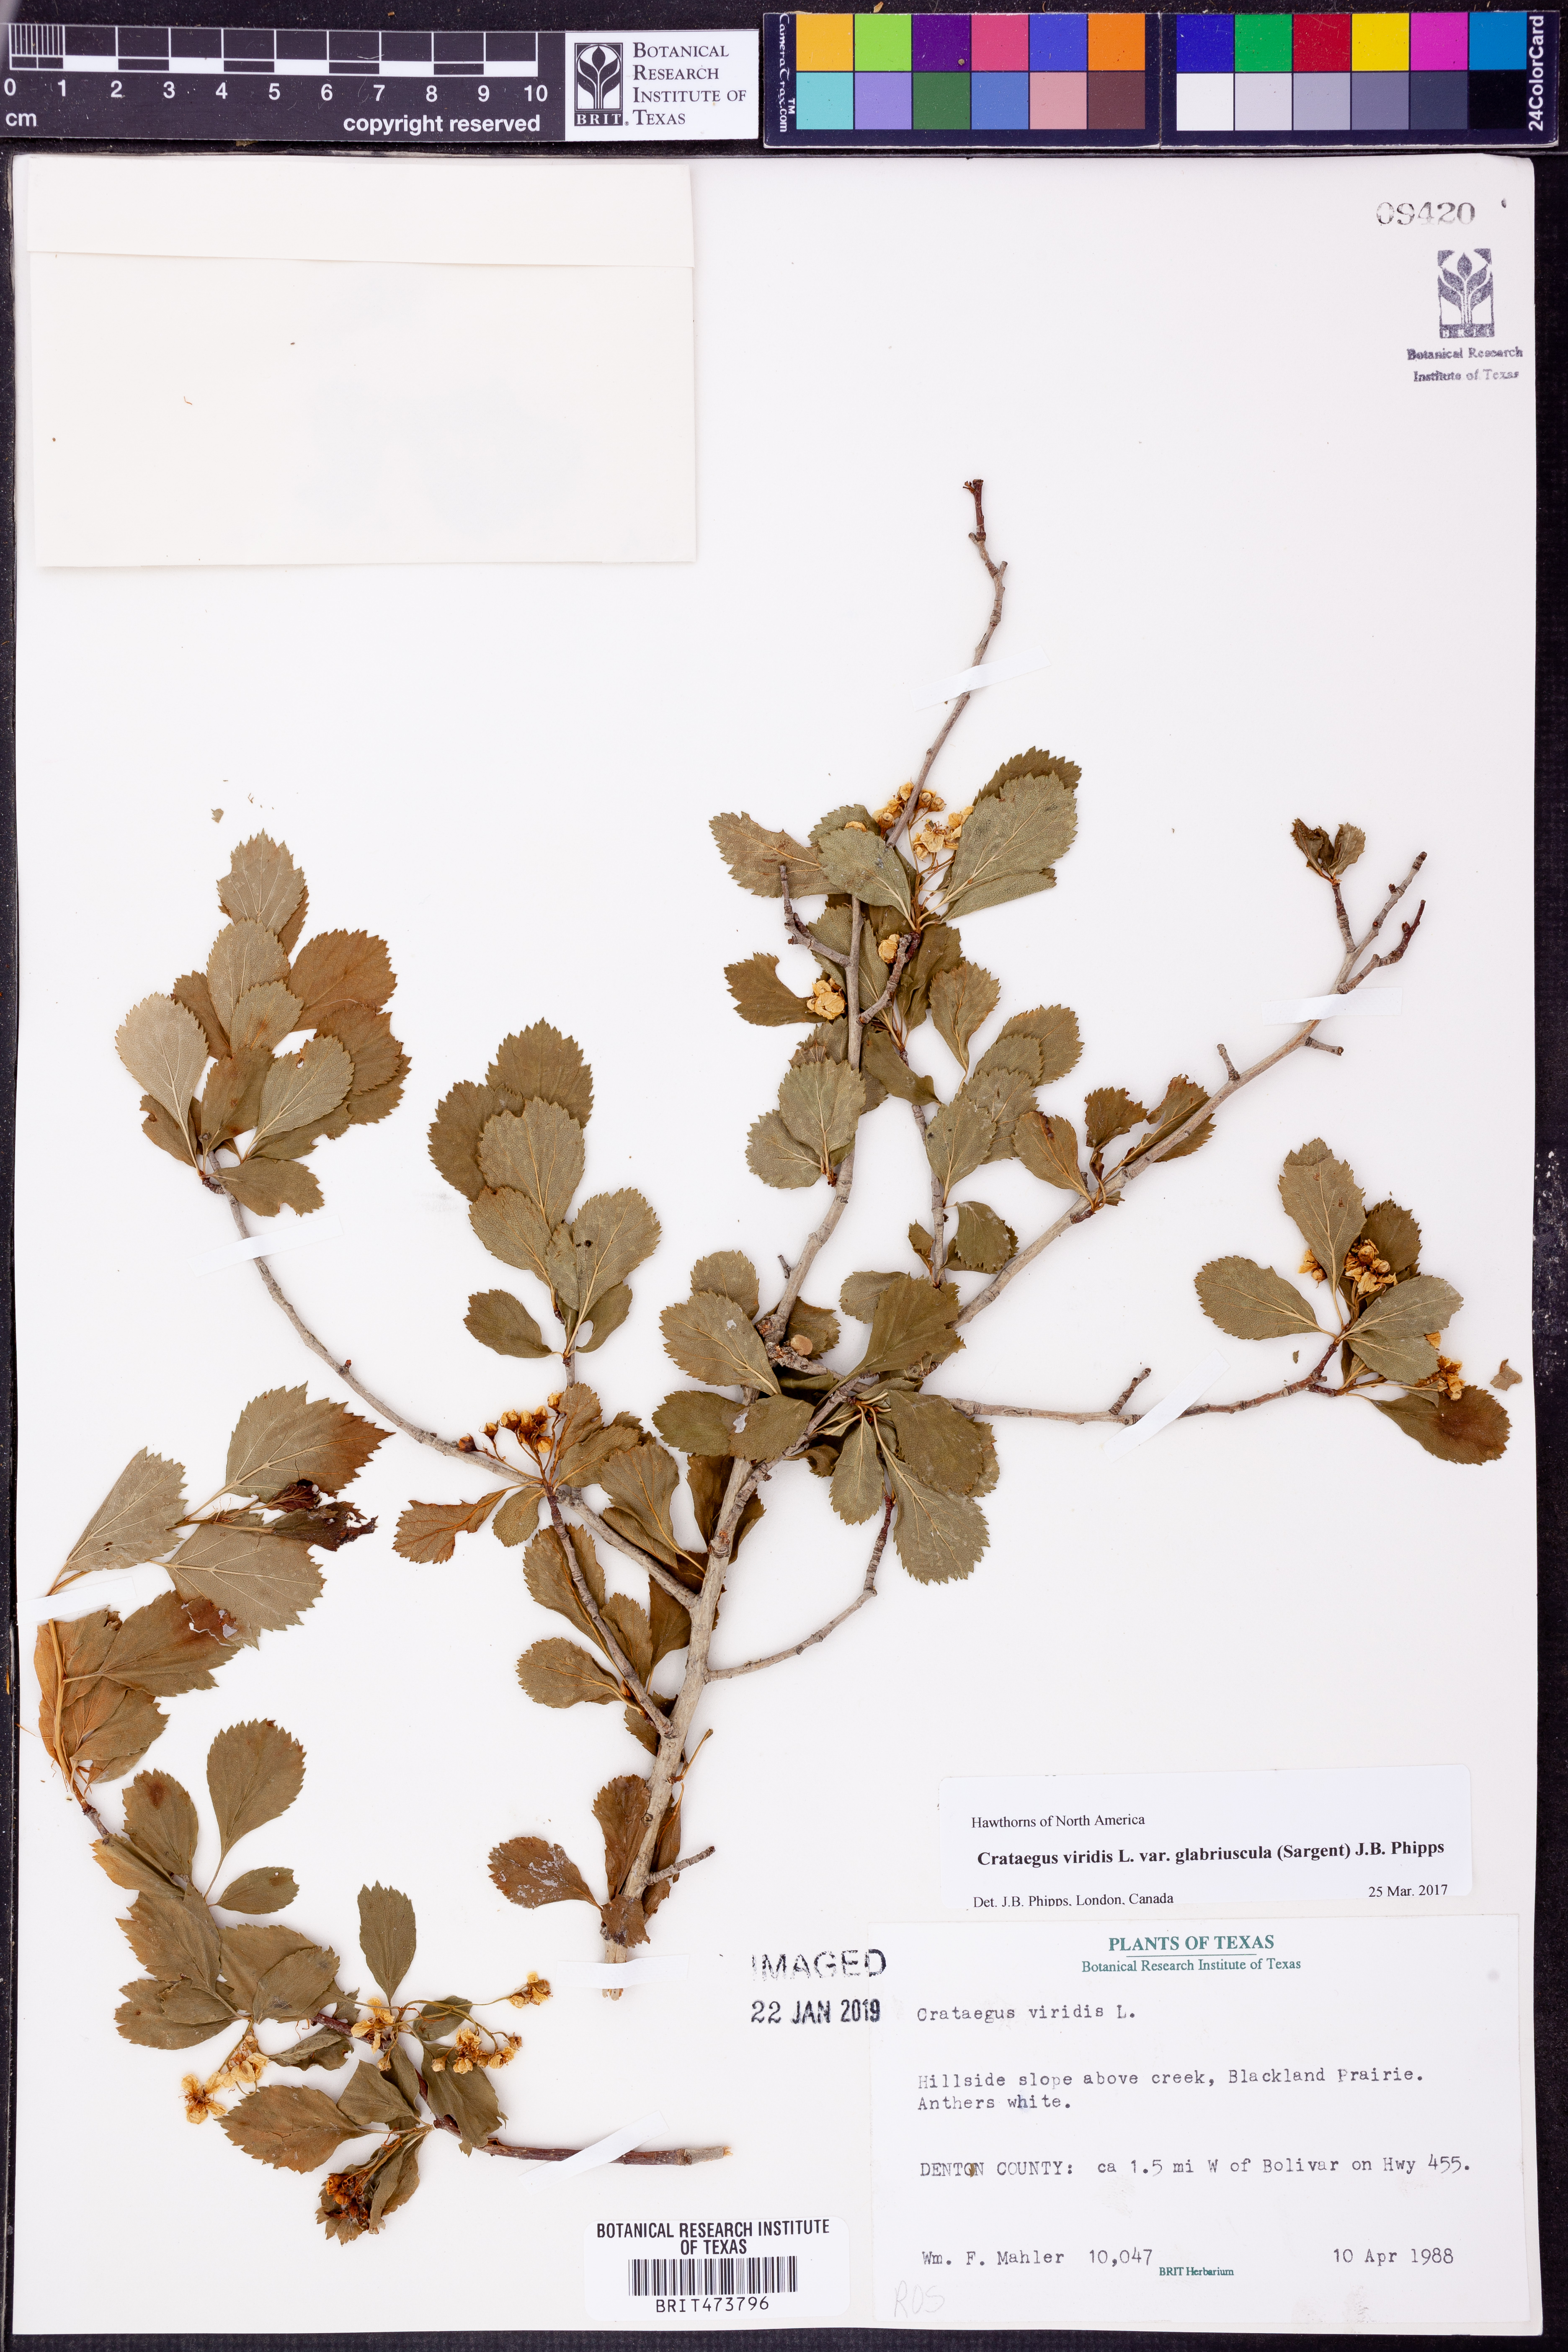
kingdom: Plantae
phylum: Tracheophyta
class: Magnoliopsida
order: Rosales
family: Rosaceae
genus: Crataegus
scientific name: Crataegus viridis
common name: Southernthorn
